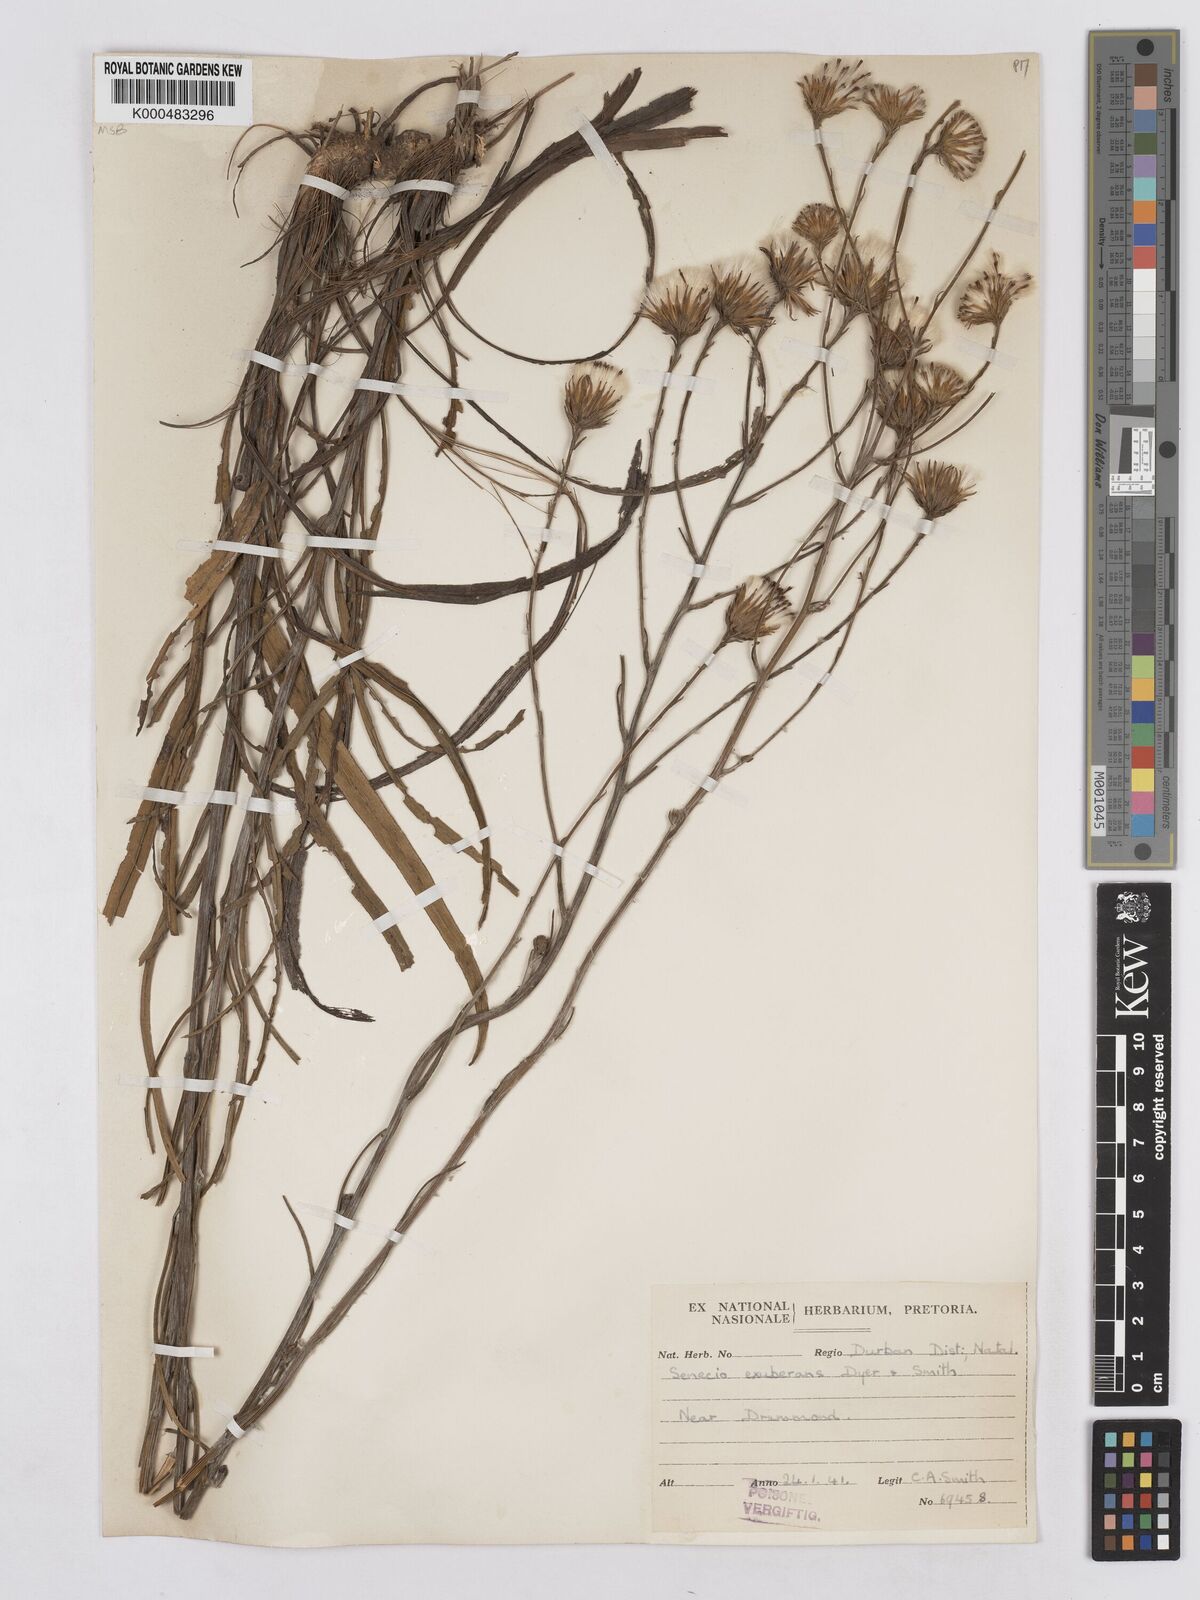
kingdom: Plantae
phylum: Tracheophyta
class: Magnoliopsida
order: Asterales
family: Asteraceae
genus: Senecio
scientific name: Senecio exuberans
